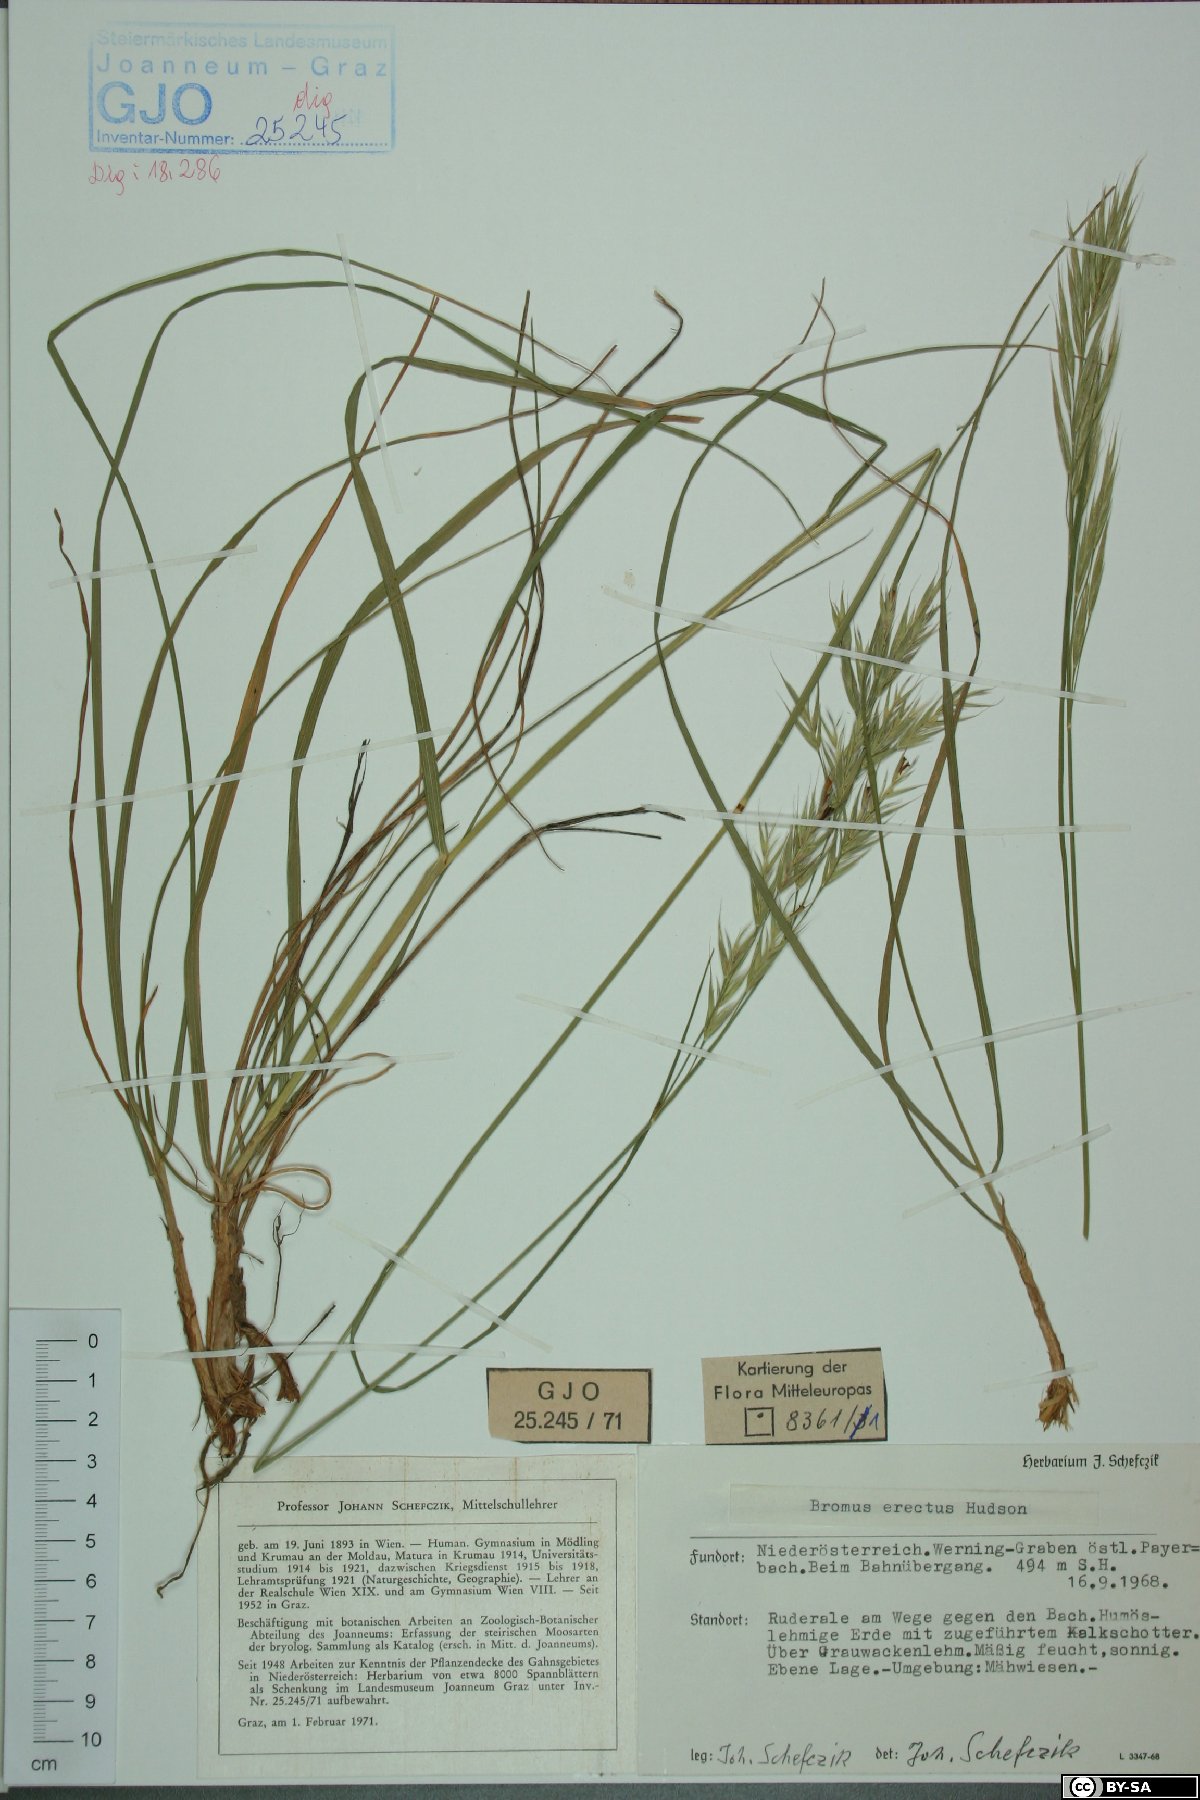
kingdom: Plantae
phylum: Tracheophyta
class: Liliopsida
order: Poales
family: Poaceae
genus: Bromus
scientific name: Bromus erectus
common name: Erect brome
